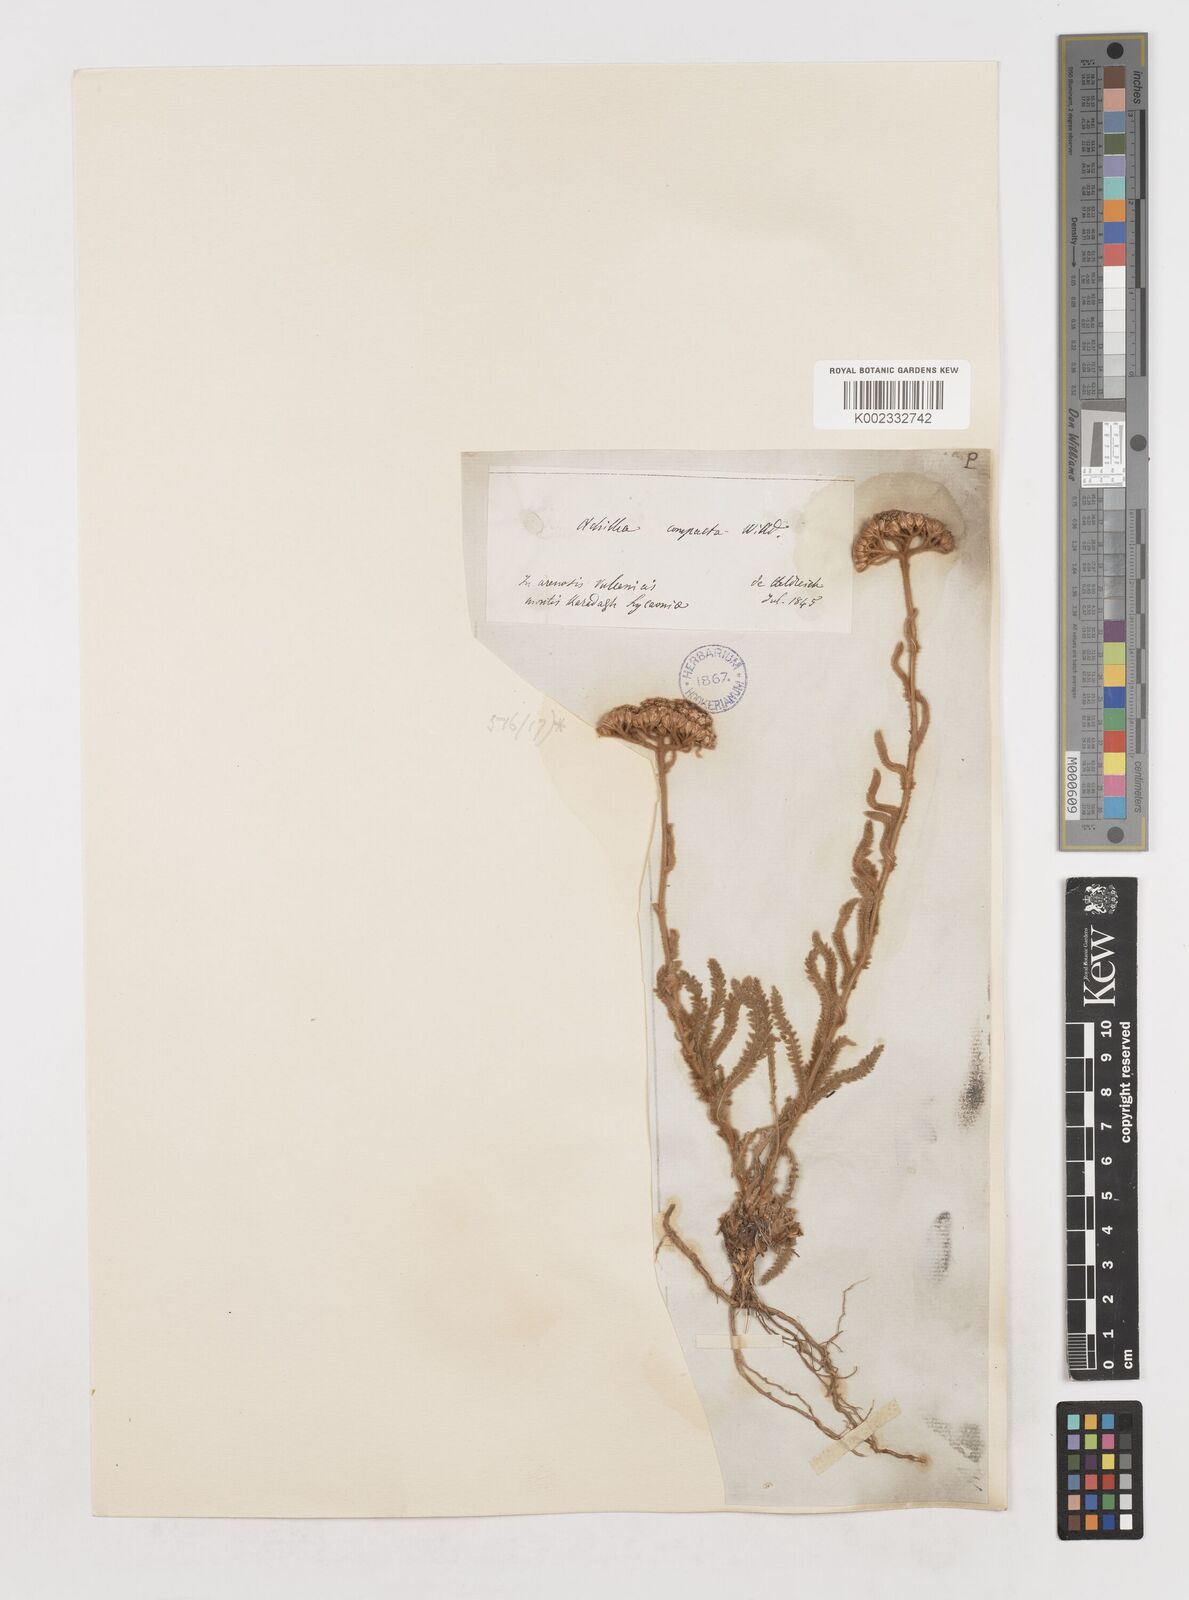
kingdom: Plantae
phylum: Tracheophyta
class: Magnoliopsida
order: Asterales
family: Asteraceae
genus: Achillea
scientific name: Achillea coarctata
